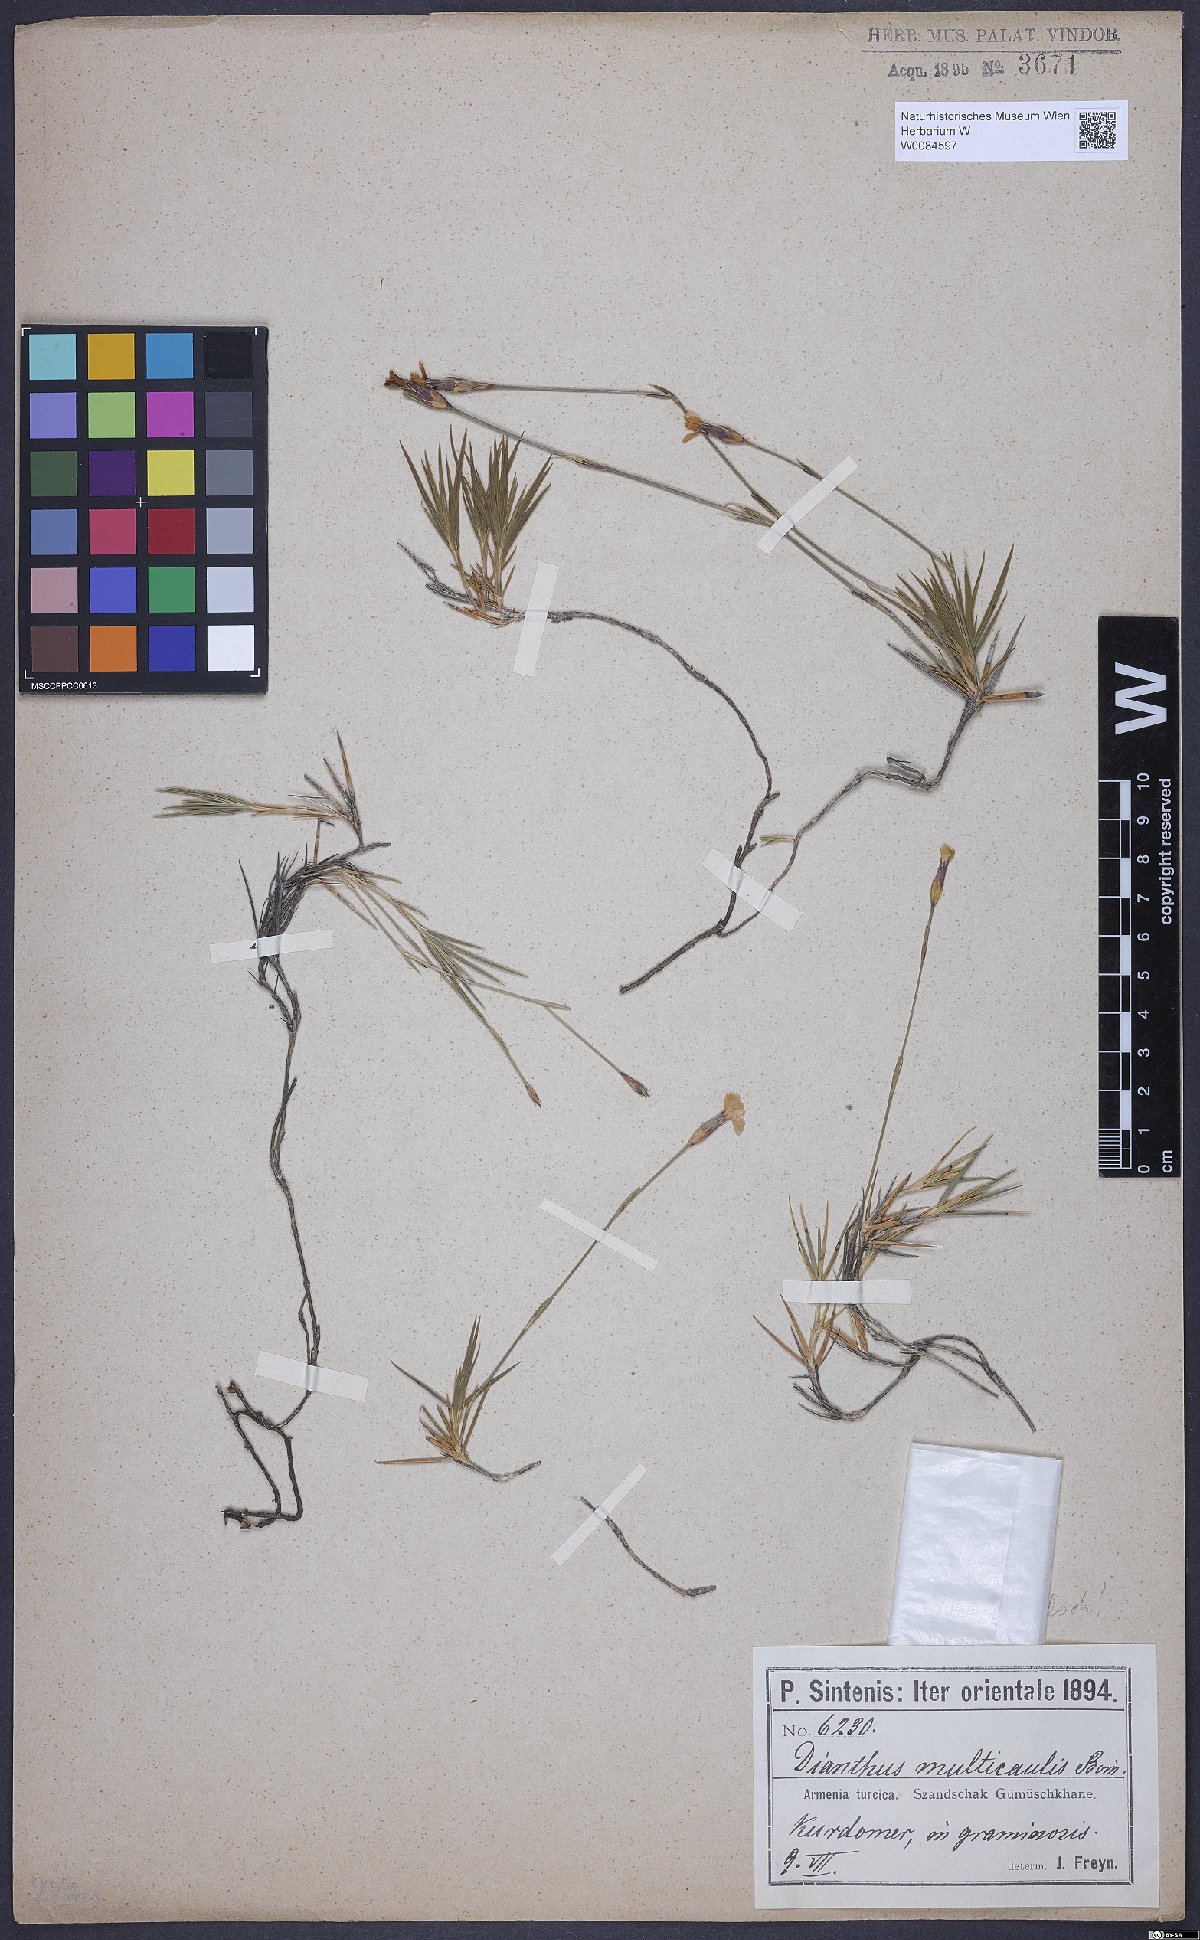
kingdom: Plantae
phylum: Tracheophyta
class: Magnoliopsida
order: Caryophyllales
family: Caryophyllaceae
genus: Dianthus
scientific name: Dianthus cretaceus
